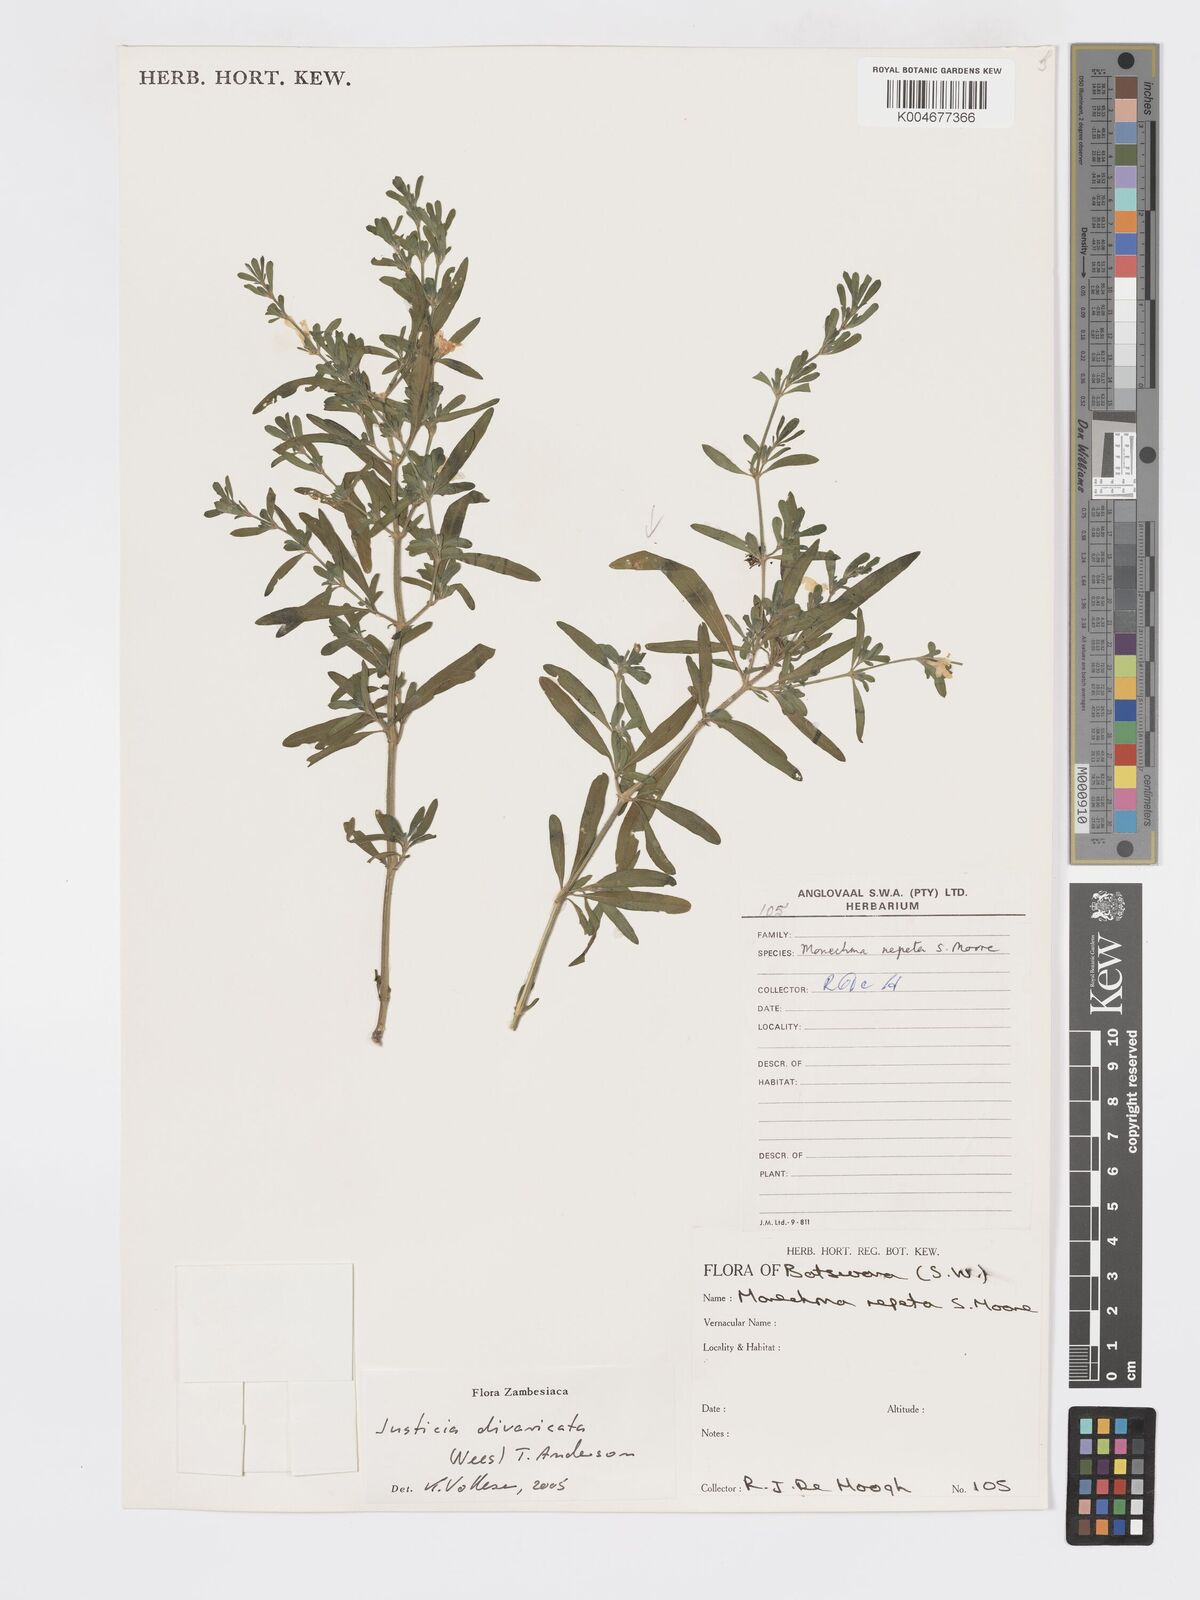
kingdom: Plantae
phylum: Tracheophyta
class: Magnoliopsida
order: Lamiales
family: Acanthaceae
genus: Pogonospermum
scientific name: Pogonospermum
